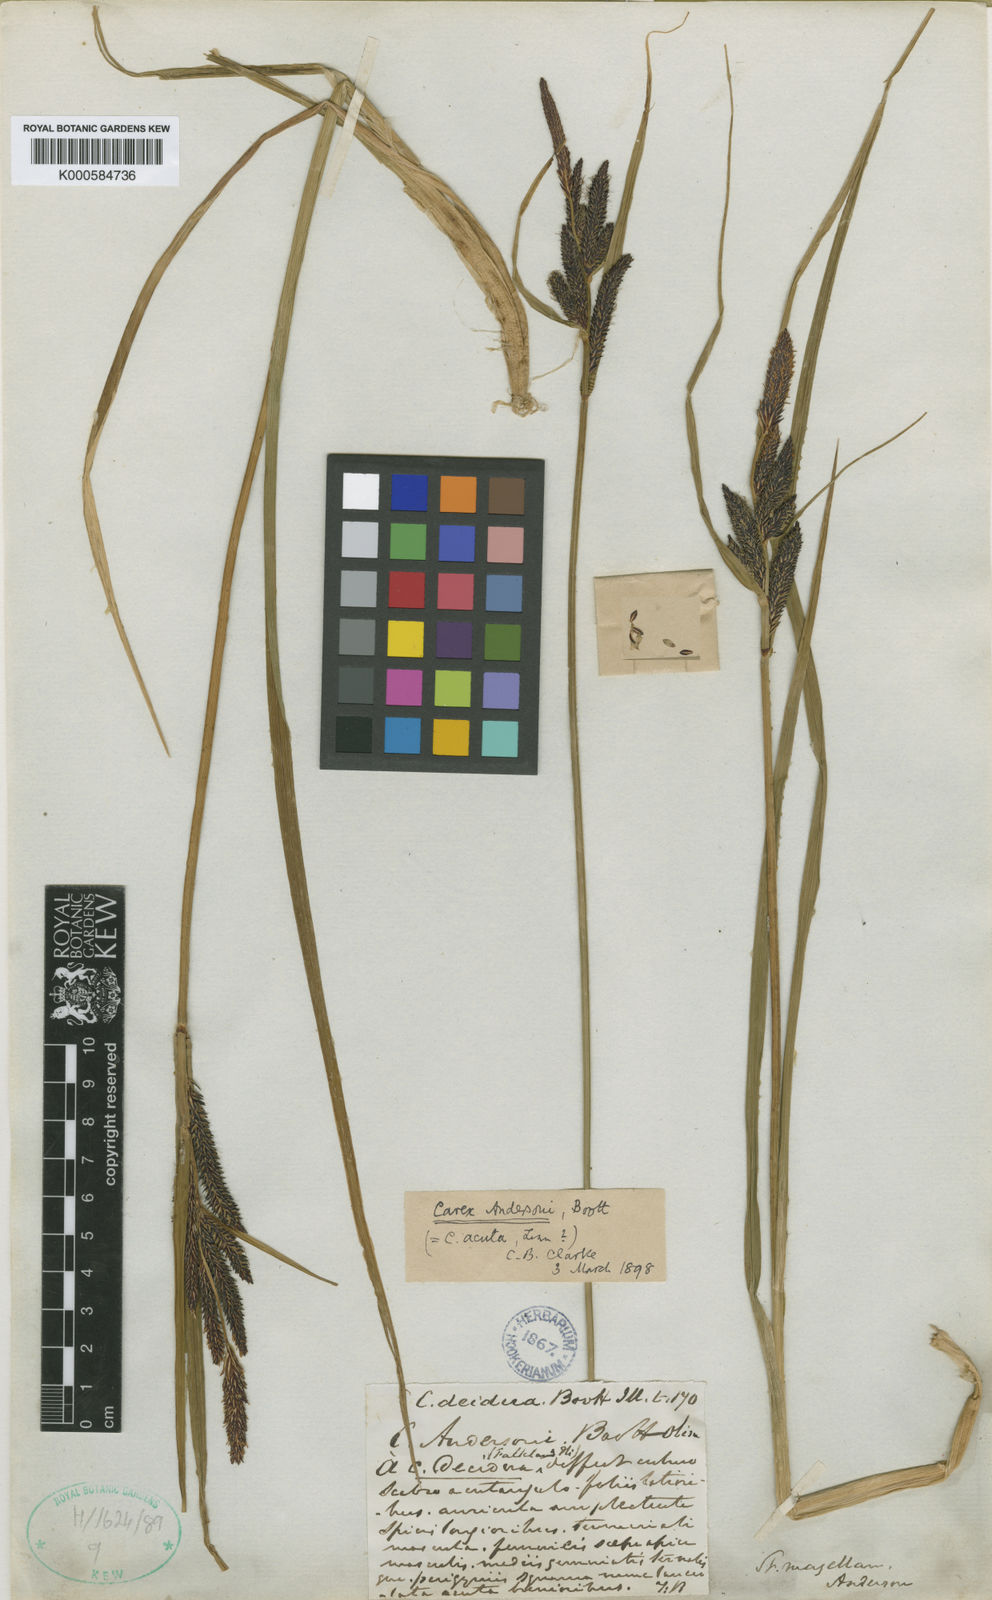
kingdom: Plantae
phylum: Tracheophyta
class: Liliopsida
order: Poales
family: Cyperaceae
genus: Carex
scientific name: Carex decidua
